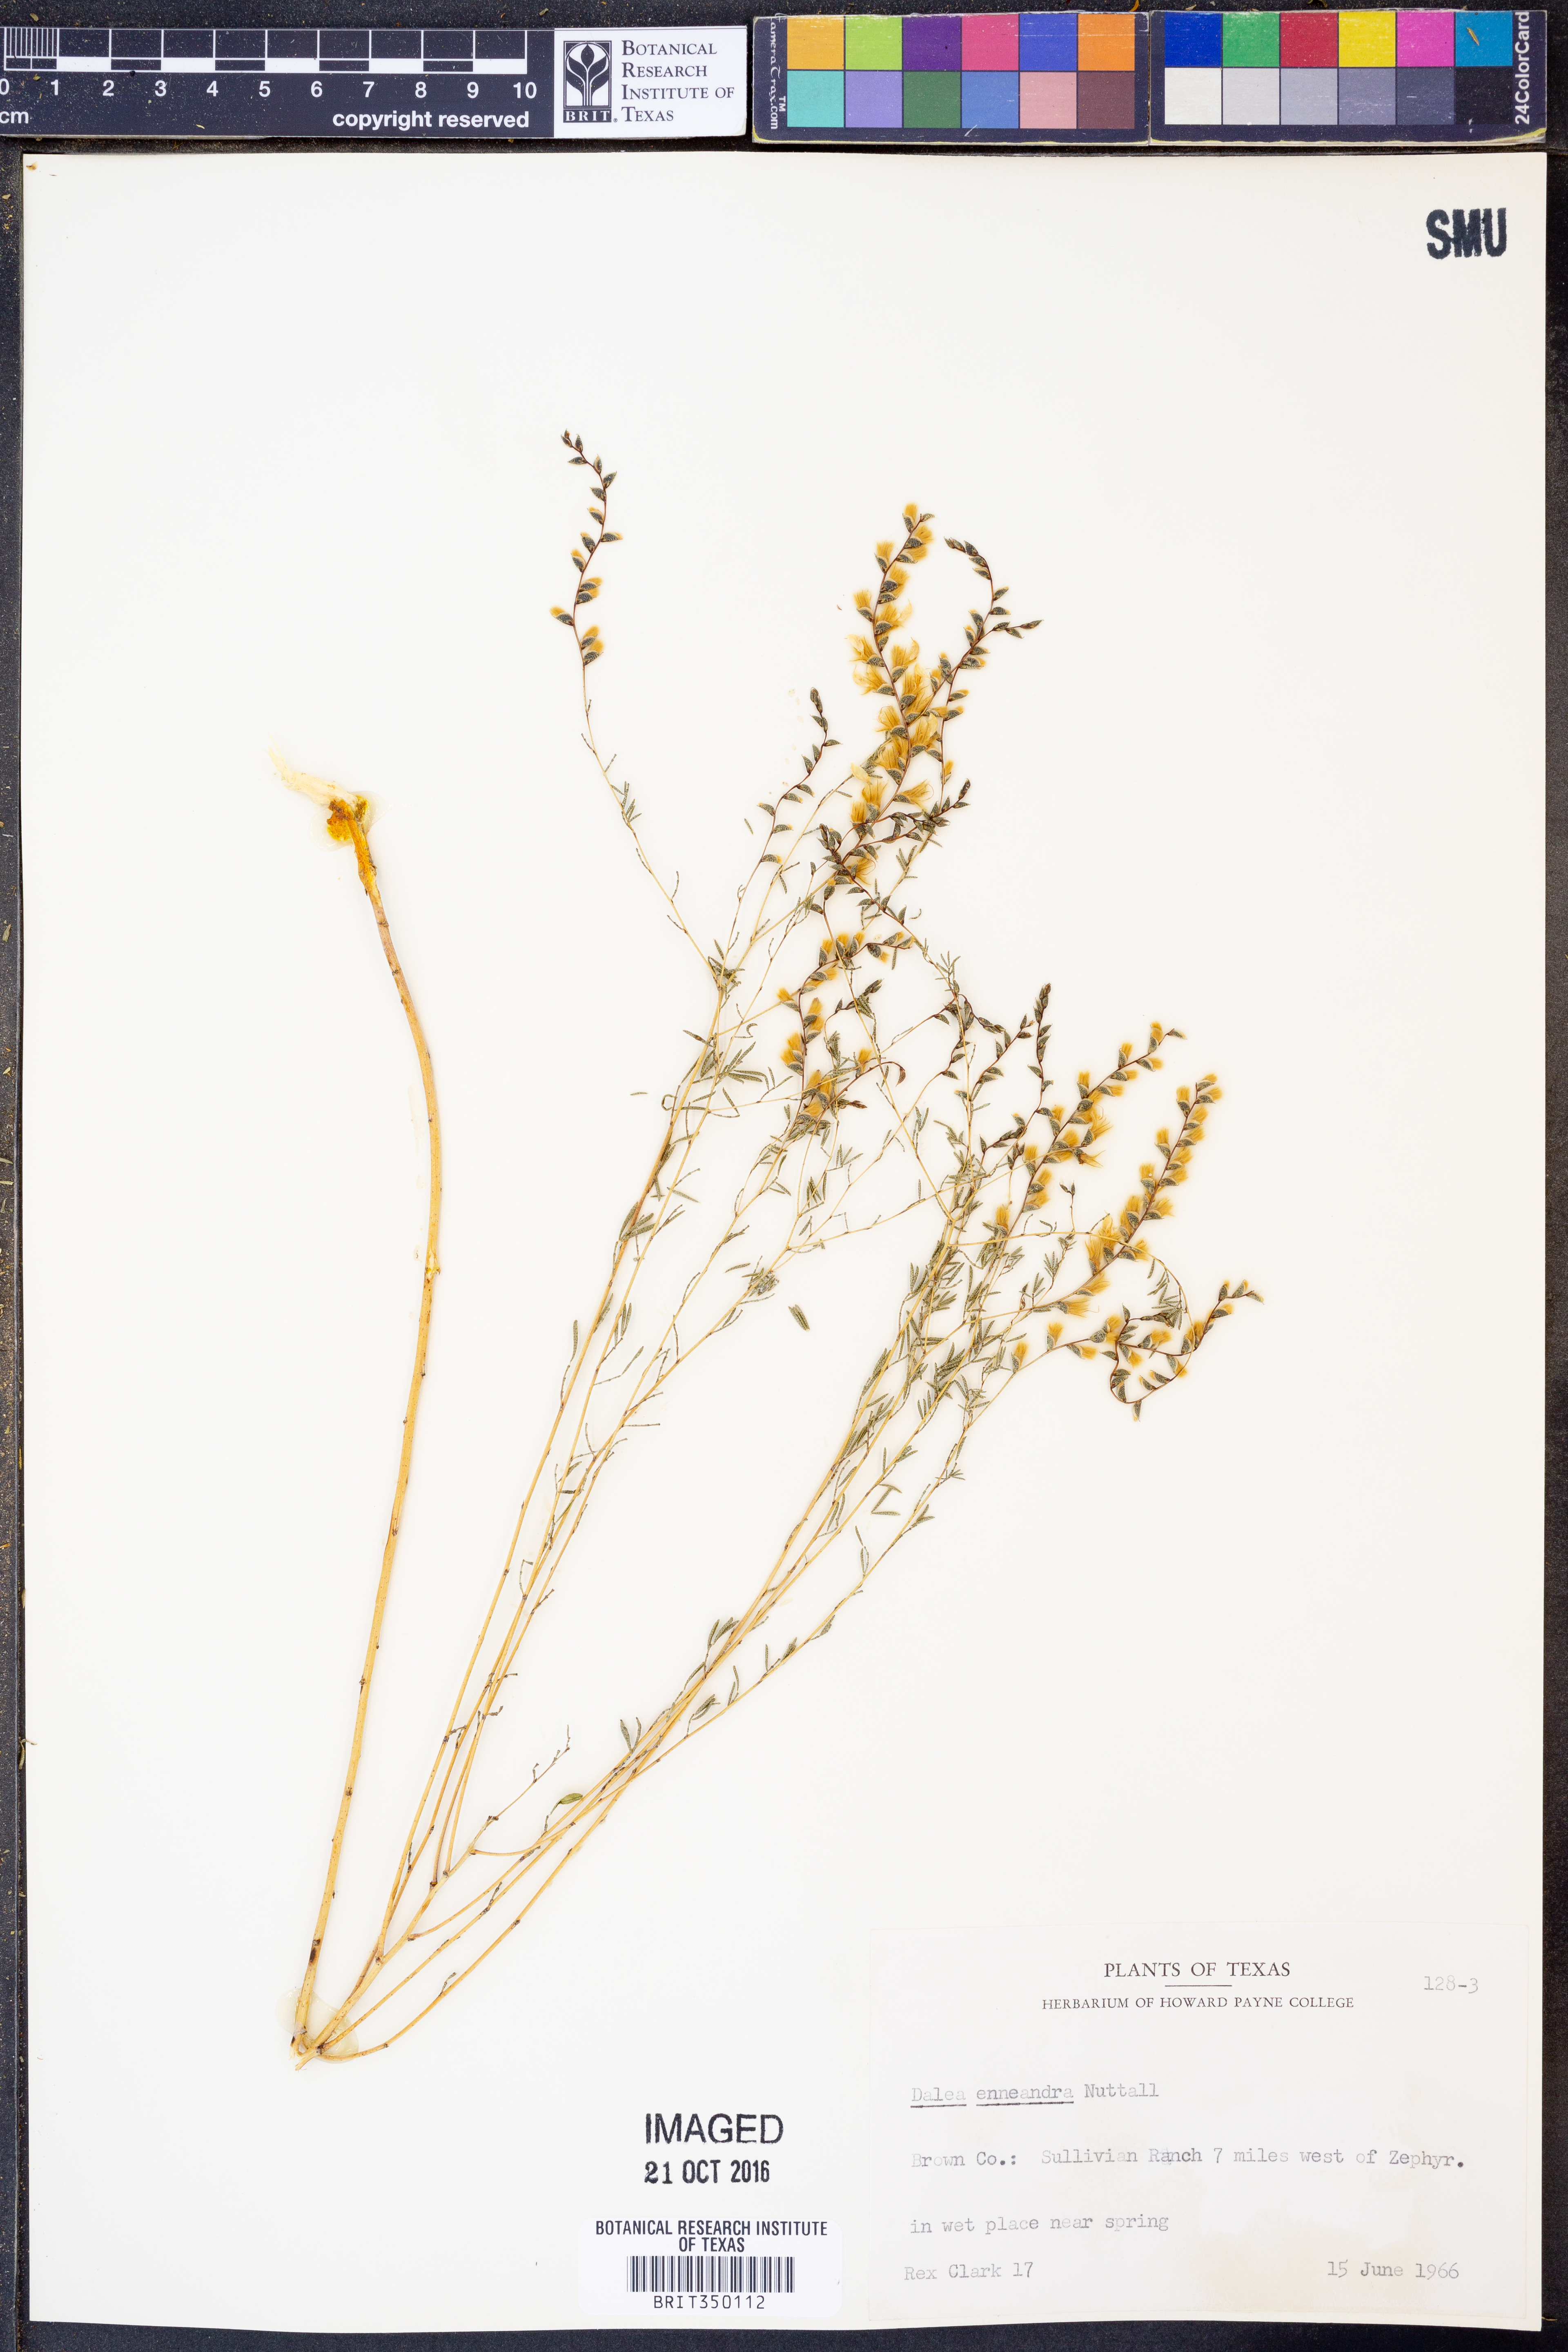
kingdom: Plantae
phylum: Tracheophyta
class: Magnoliopsida
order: Fabales
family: Fabaceae
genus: Dalea
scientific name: Dalea enneandra
